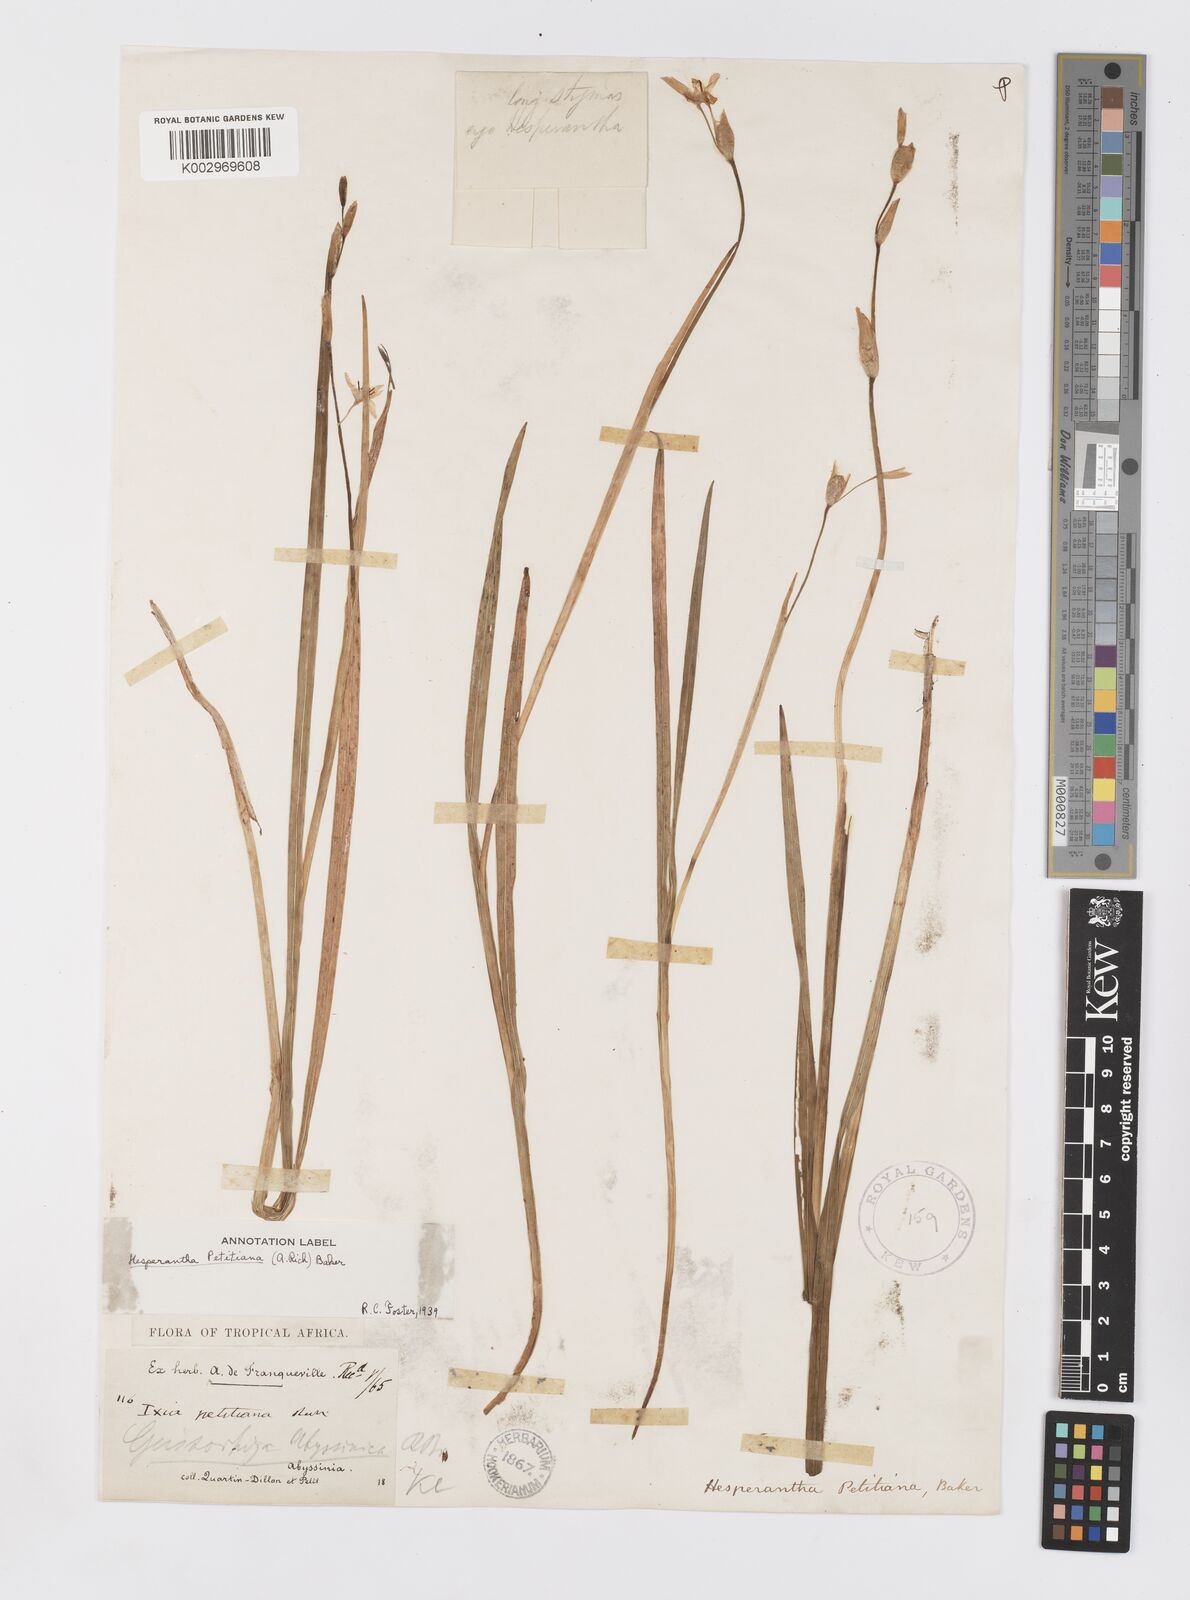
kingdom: Plantae
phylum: Tracheophyta
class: Liliopsida
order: Asparagales
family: Iridaceae
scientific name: Iridaceae
